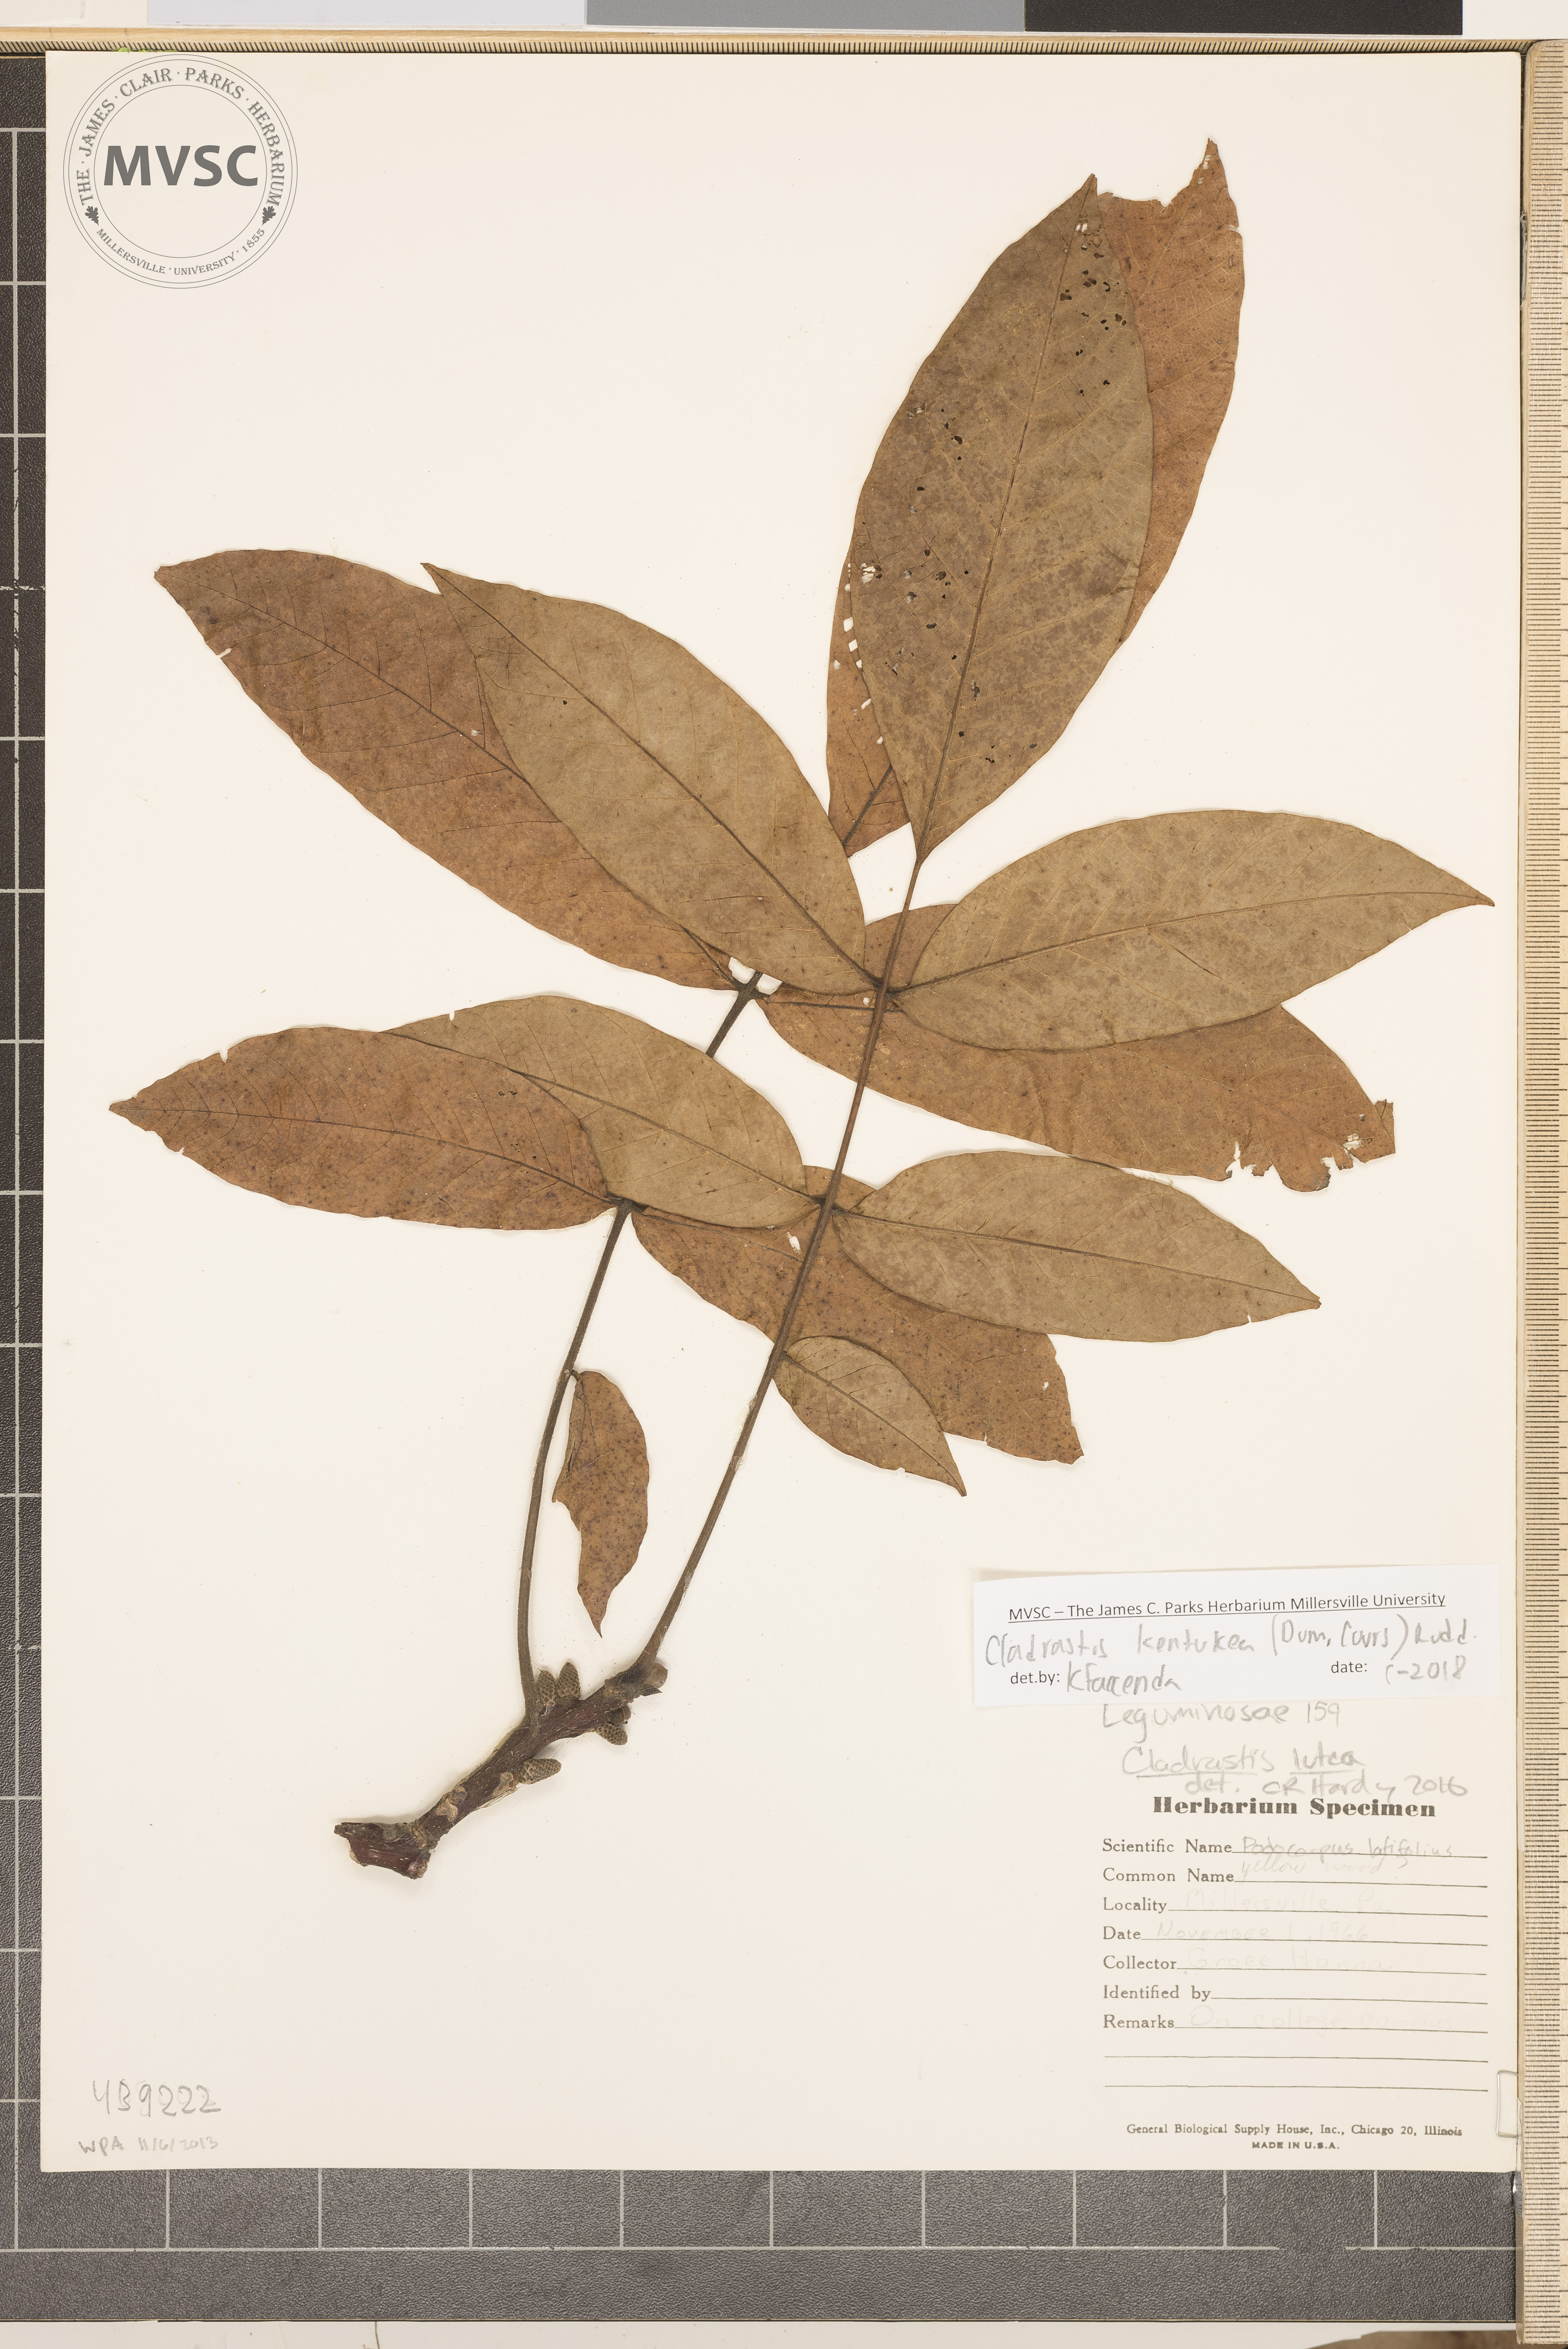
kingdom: Plantae
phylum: Tracheophyta
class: Magnoliopsida
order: Fabales
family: Fabaceae
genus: Cladrastis
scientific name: Cladrastis kentukea
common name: Yellow wood
